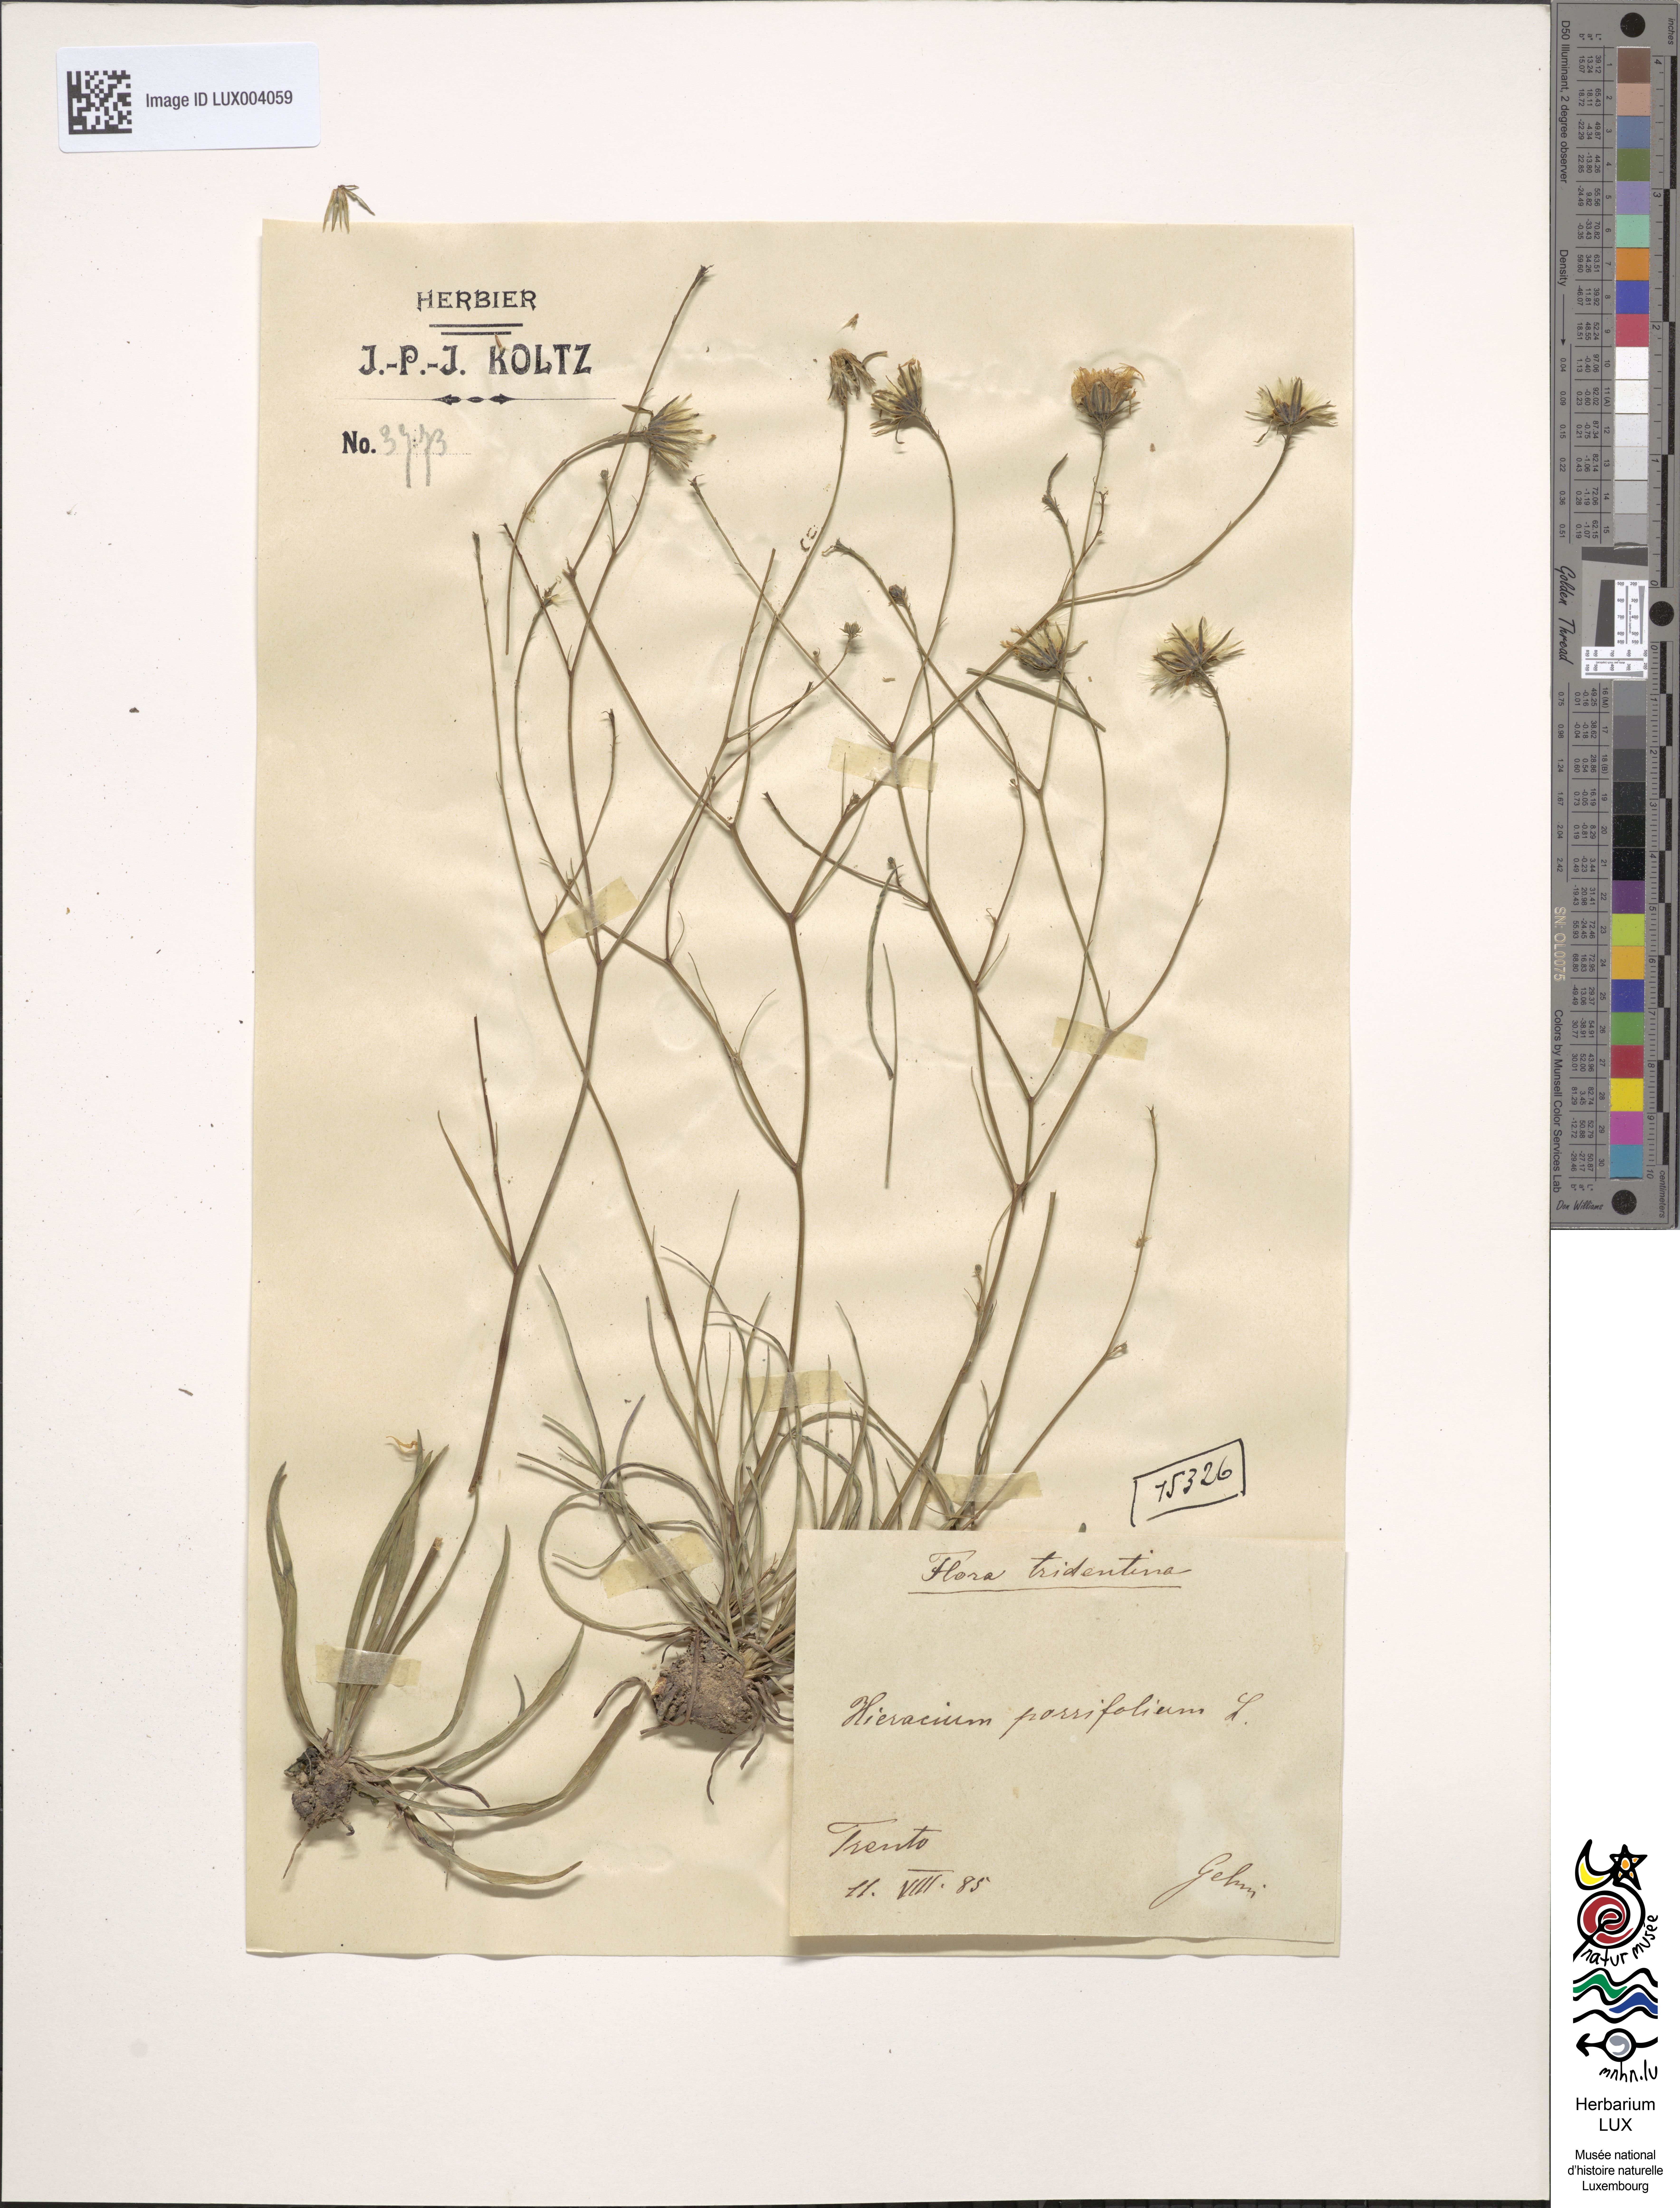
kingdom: Plantae
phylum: Tracheophyta
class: Magnoliopsida
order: Asterales
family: Asteraceae
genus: Hieracium
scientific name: Hieracium porrifolium
